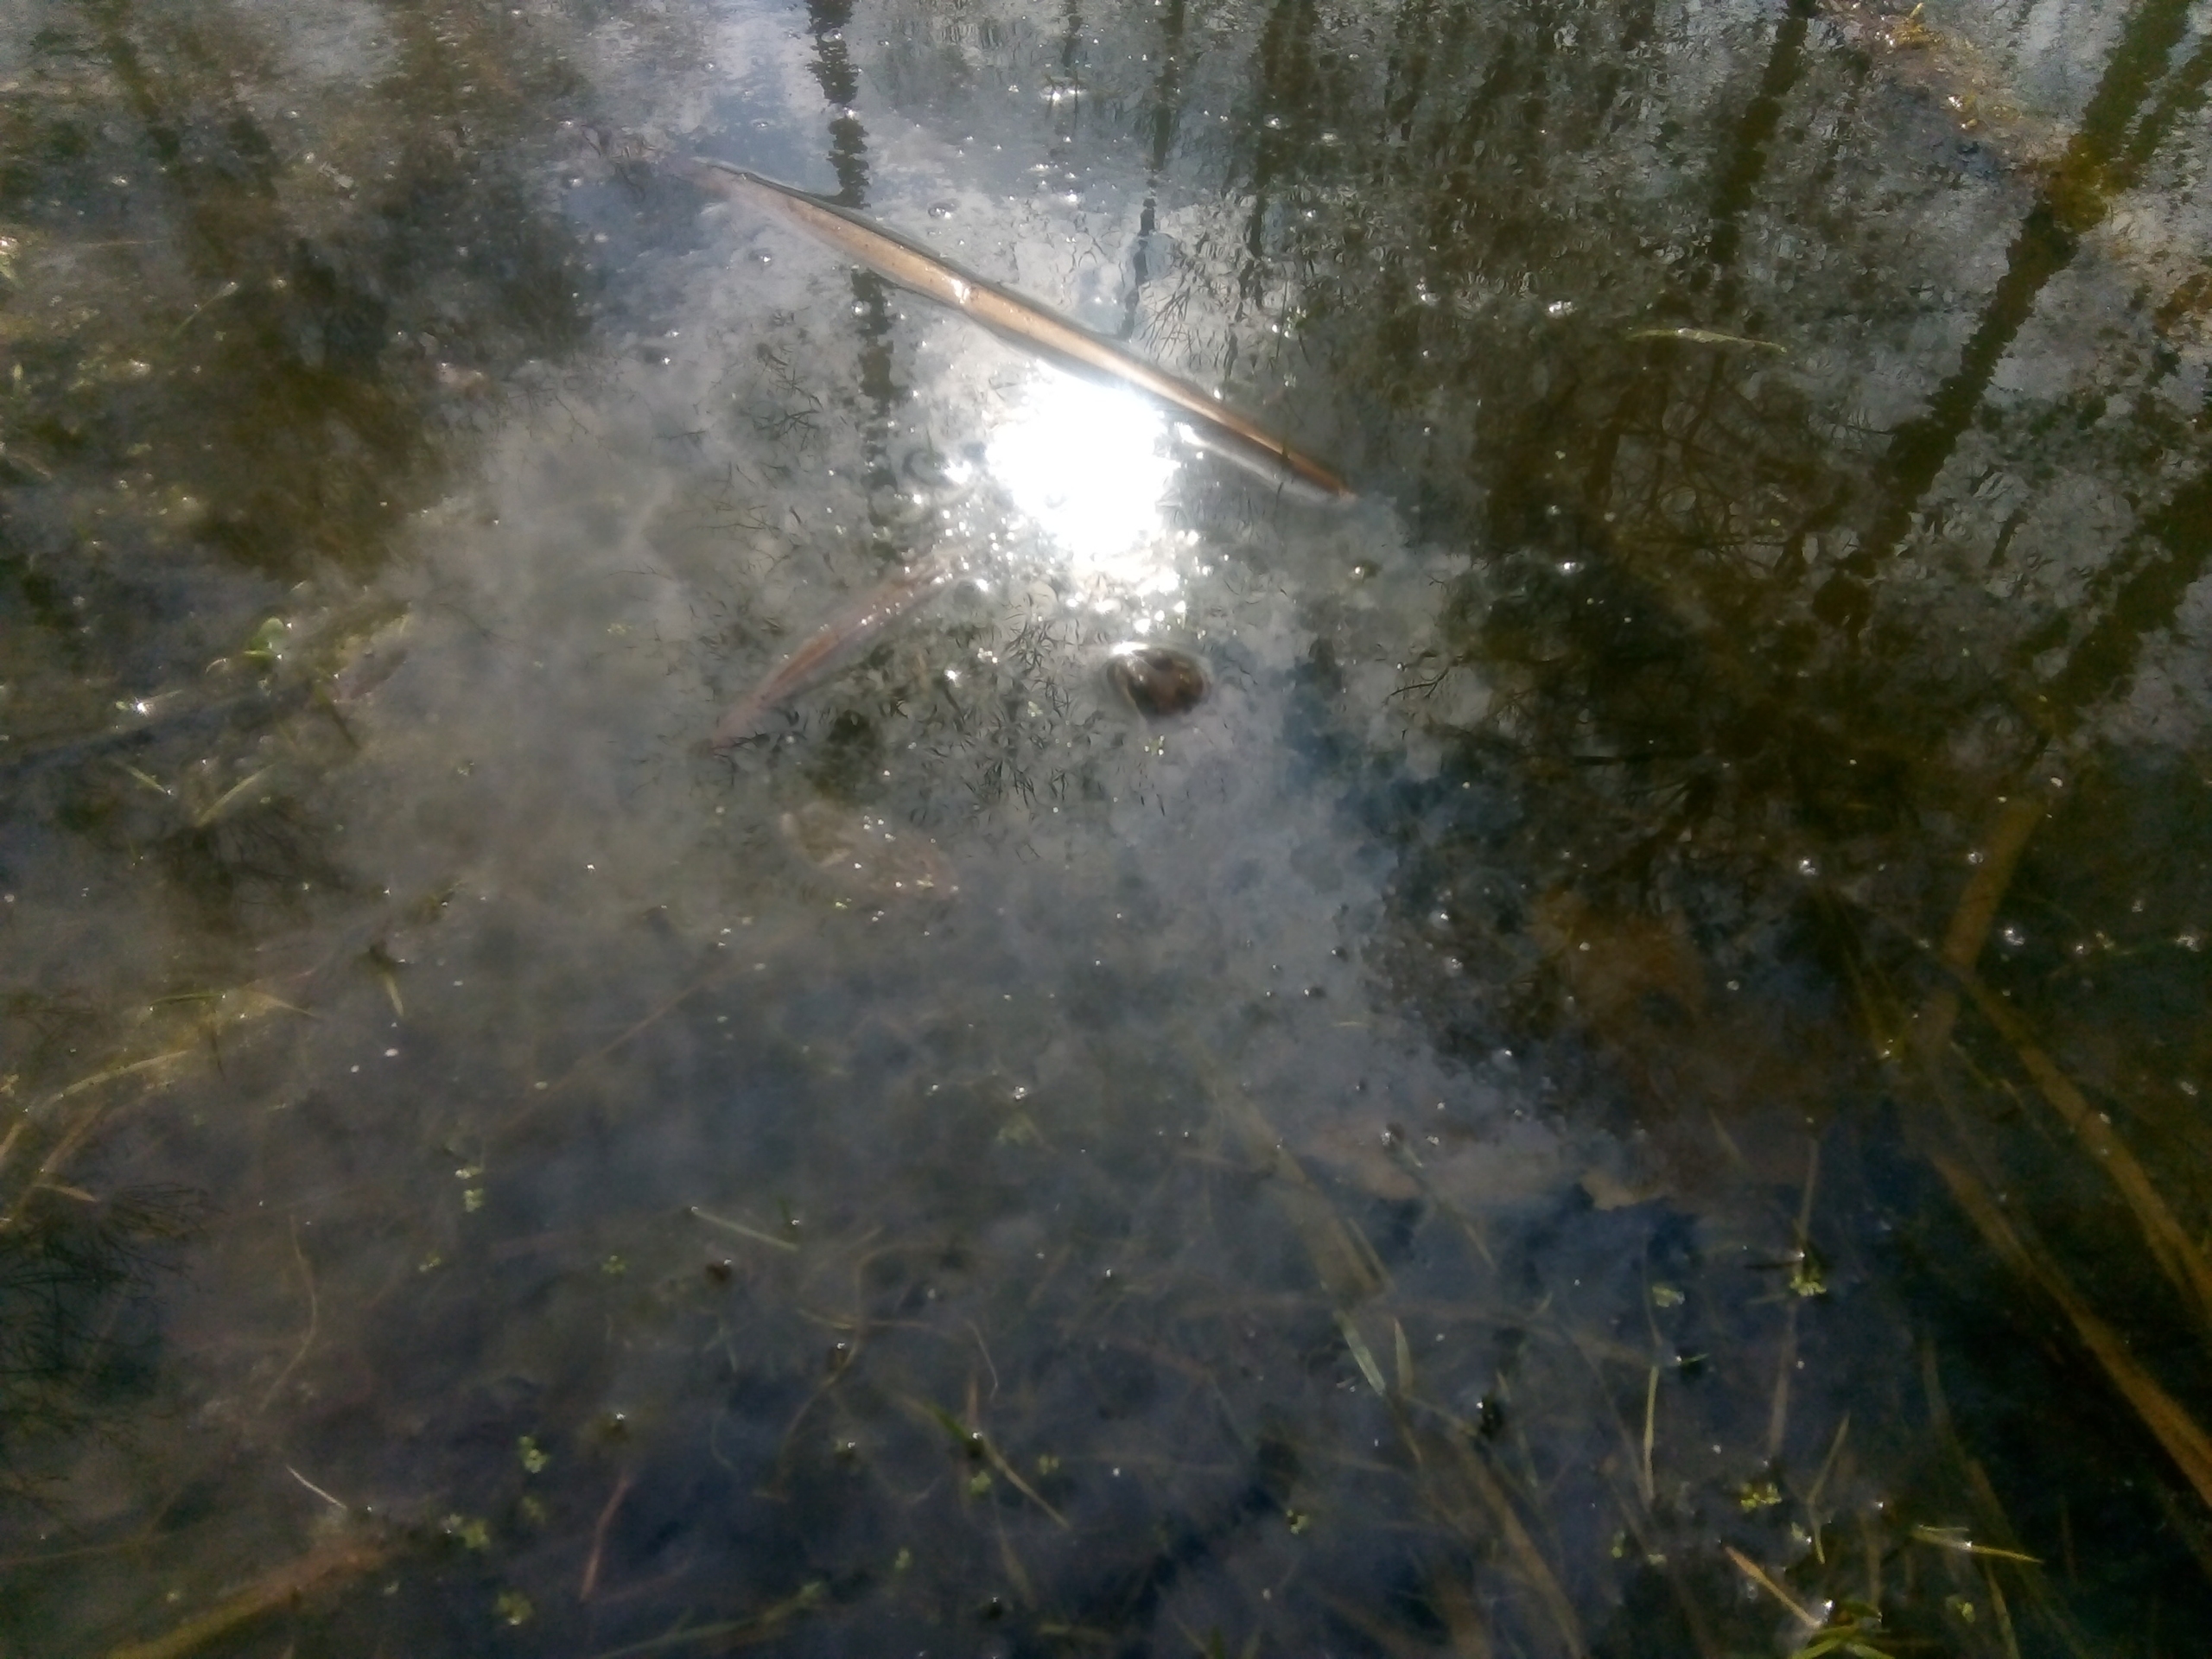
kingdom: Animalia
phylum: Chordata
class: Amphibia
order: Anura
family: Ranidae
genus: Rana
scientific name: Rana temporaria
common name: Butsnudet frø
